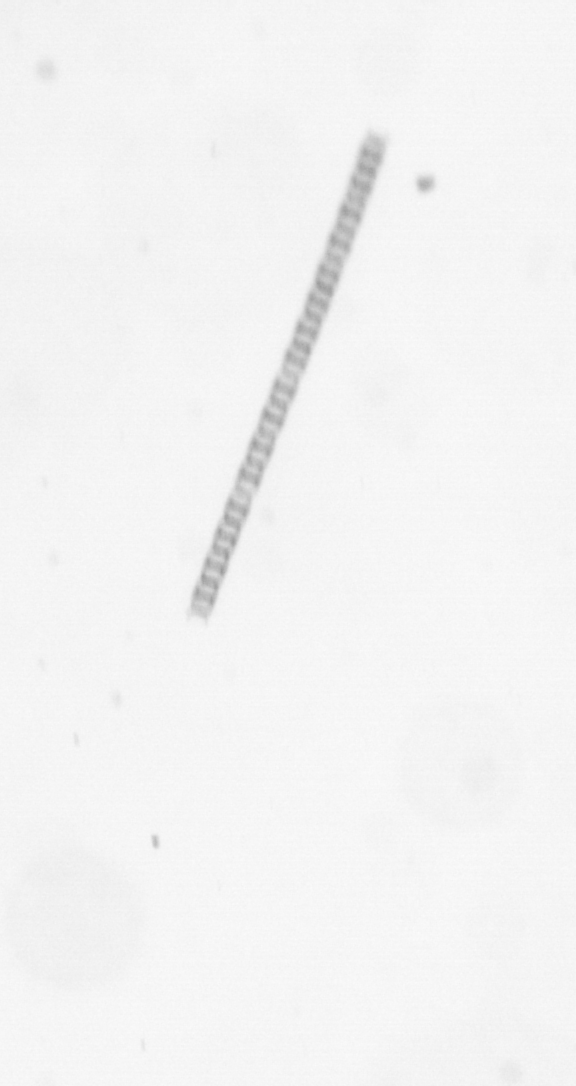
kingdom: Chromista
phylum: Ochrophyta
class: Bacillariophyceae
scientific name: Bacillariophyceae
